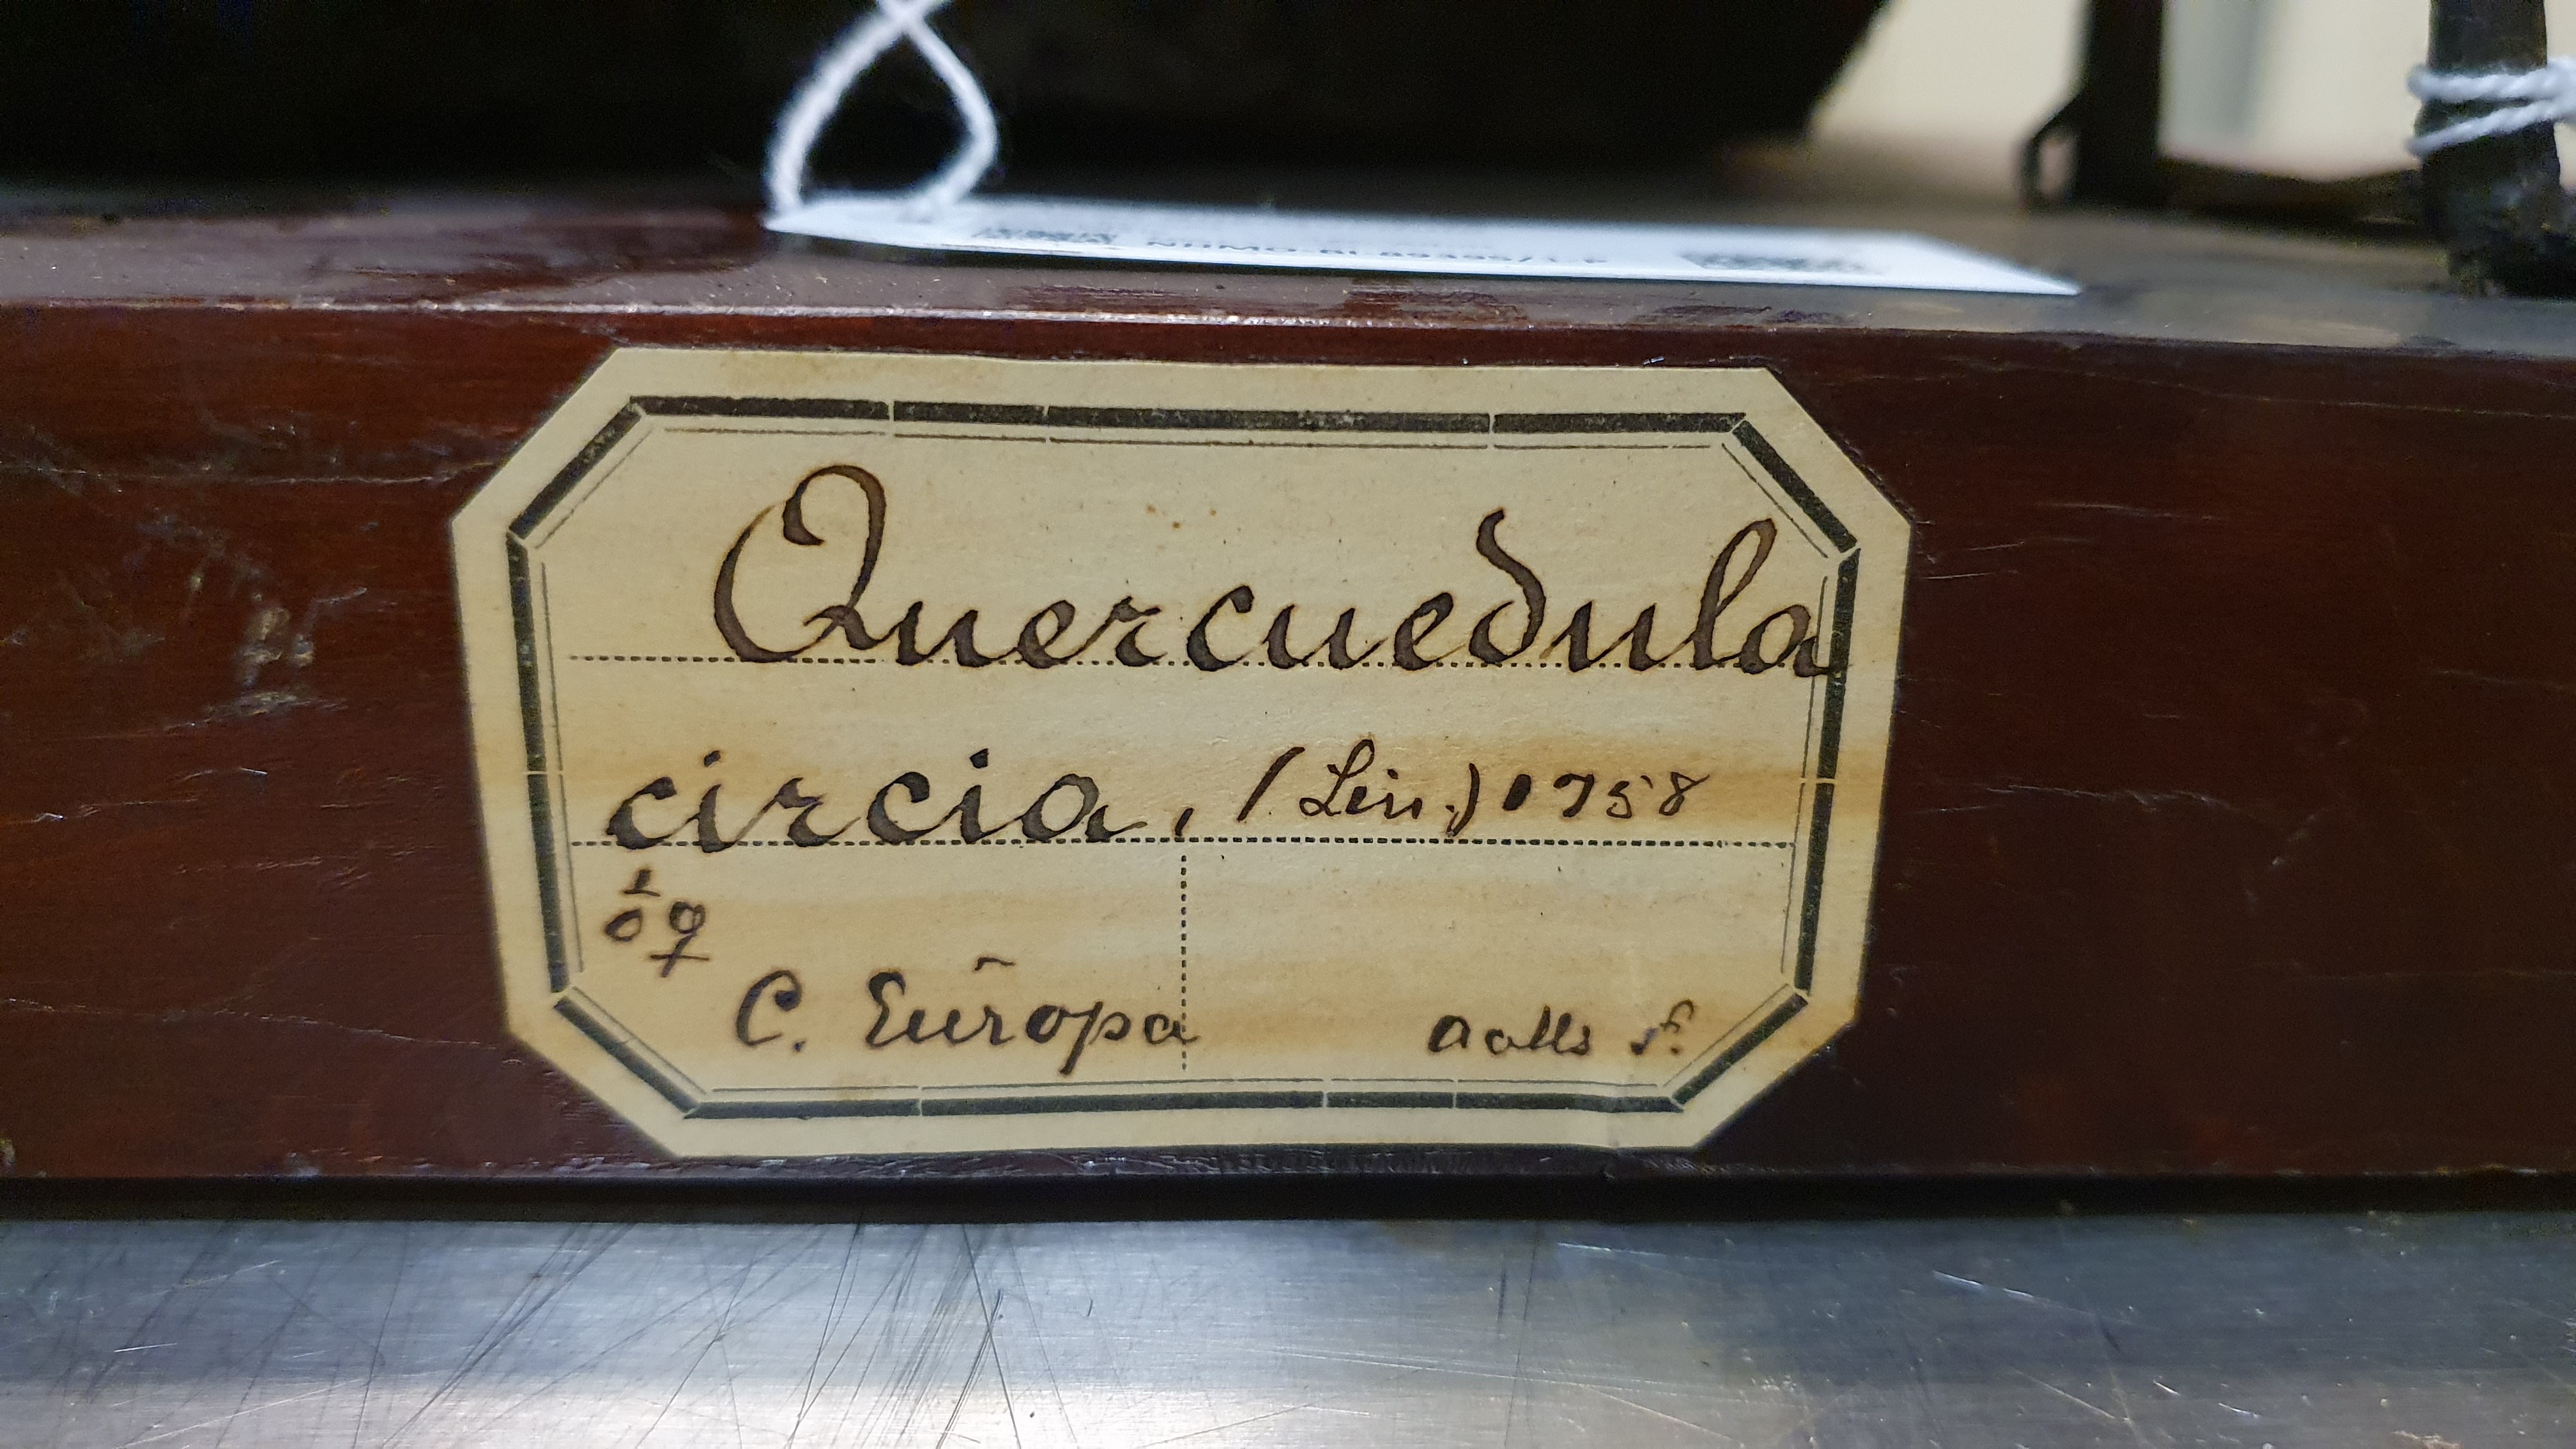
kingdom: Animalia
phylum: Chordata
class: Aves
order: Anseriformes
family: Anatidae
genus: Spatula
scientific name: Spatula querquedula
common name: Garganey
